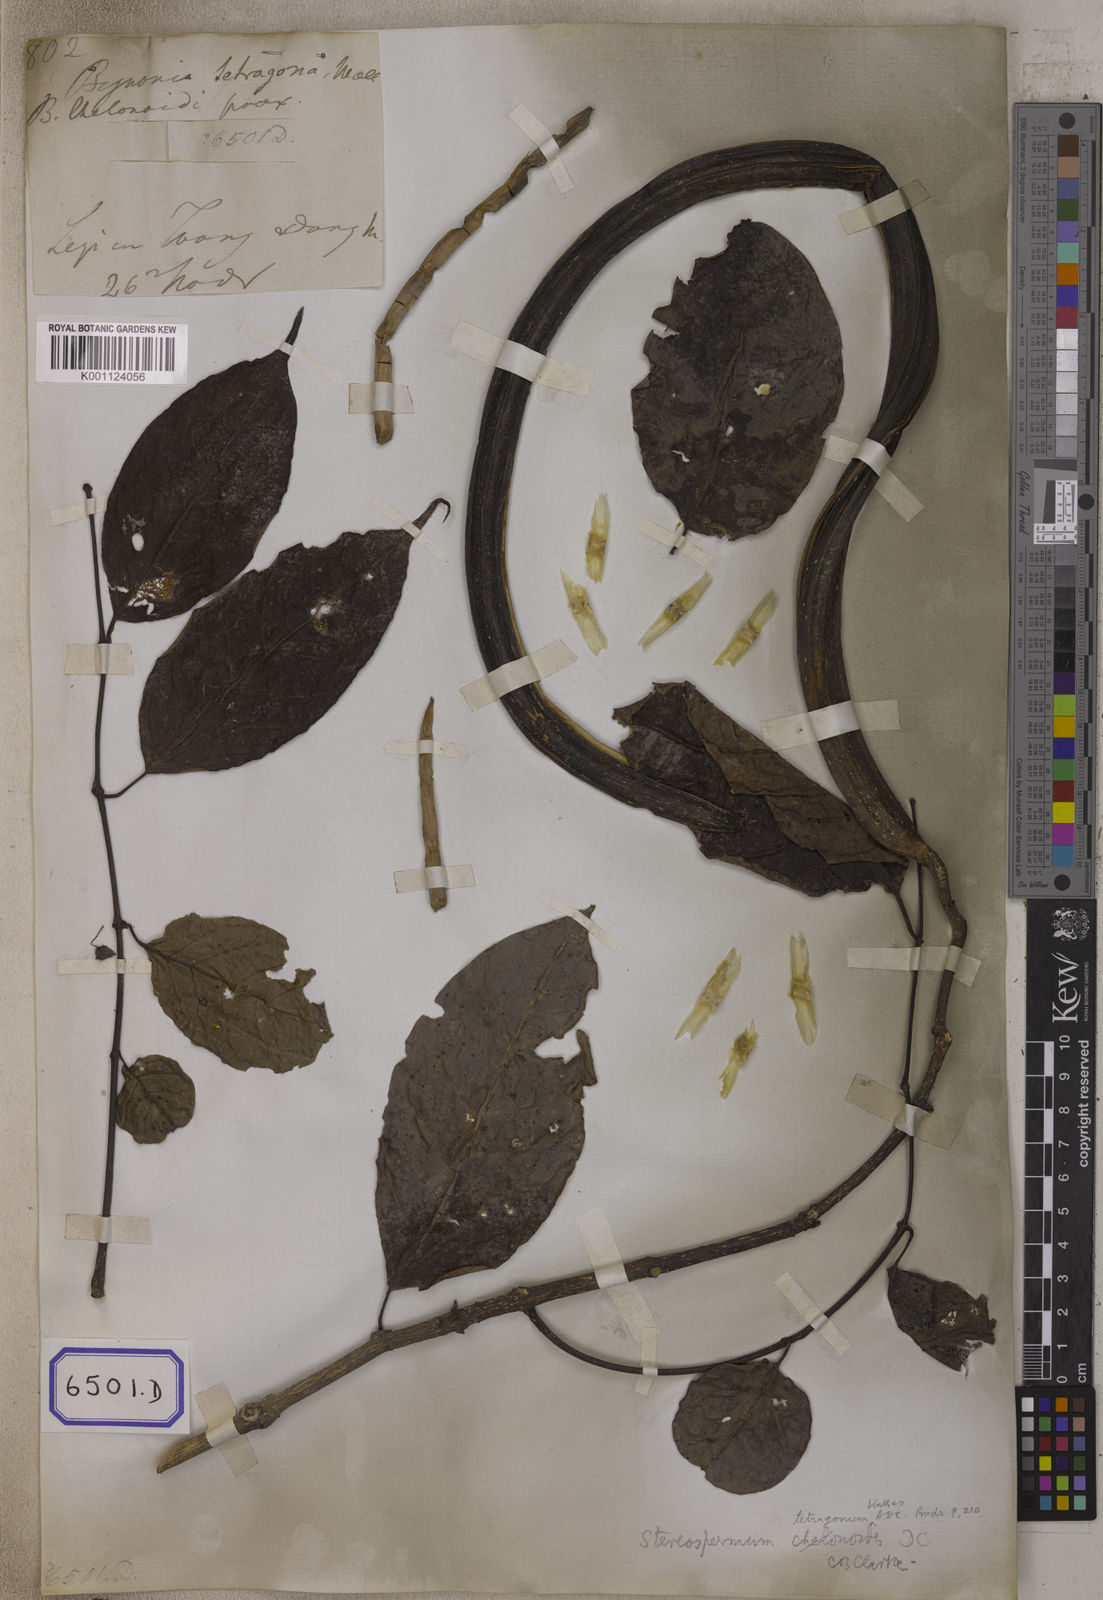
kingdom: Plantae
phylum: Tracheophyta
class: Magnoliopsida
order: Lamiales
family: Bignoniaceae
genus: Stereospermum
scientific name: Stereospermum chelonoides
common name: Fragrant padritree
